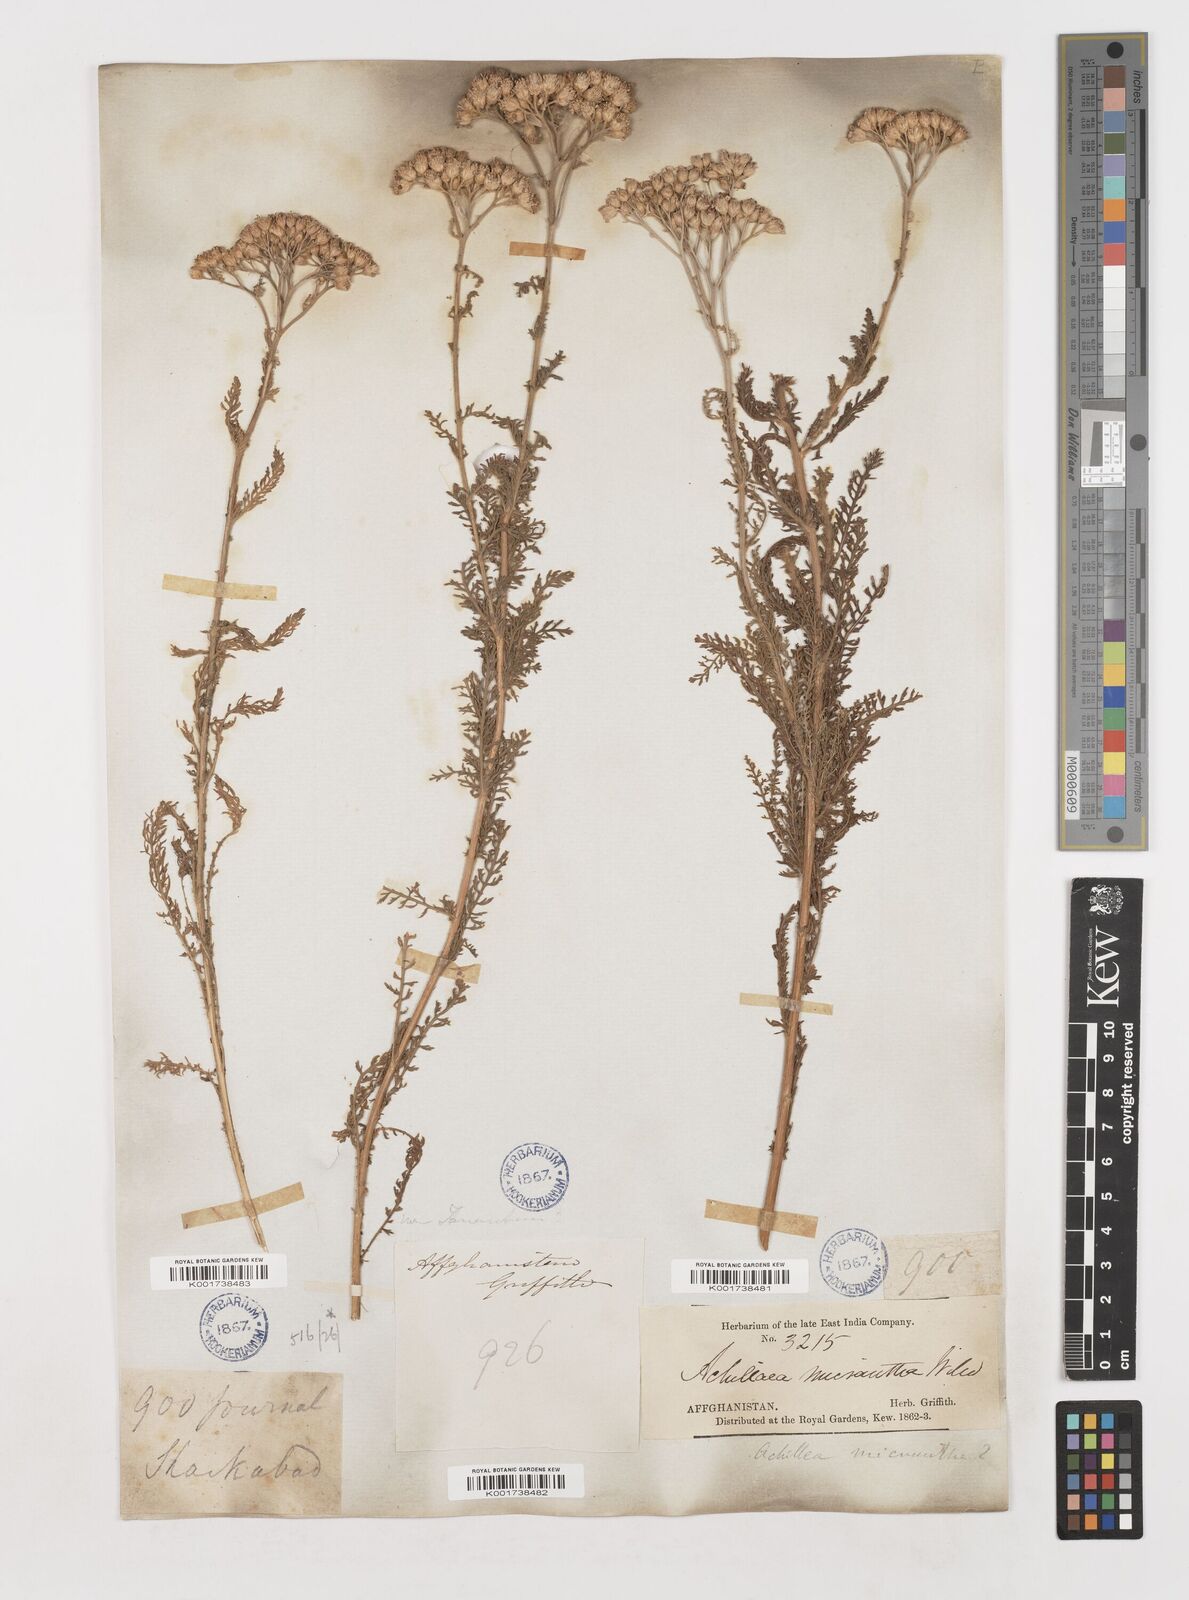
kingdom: Plantae
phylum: Tracheophyta
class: Magnoliopsida
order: Asterales
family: Asteraceae
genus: Achillea
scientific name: Achillea arabica
